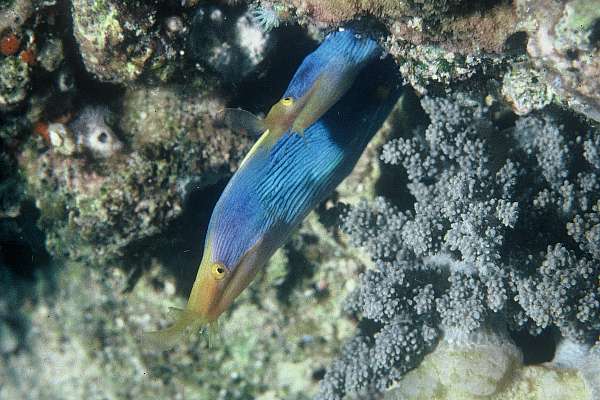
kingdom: Animalia
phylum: Chordata
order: Anguilliformes
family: Muraenidae
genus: Rhinomuraena
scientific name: Rhinomuraena quaesita
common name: Ribbon eel
